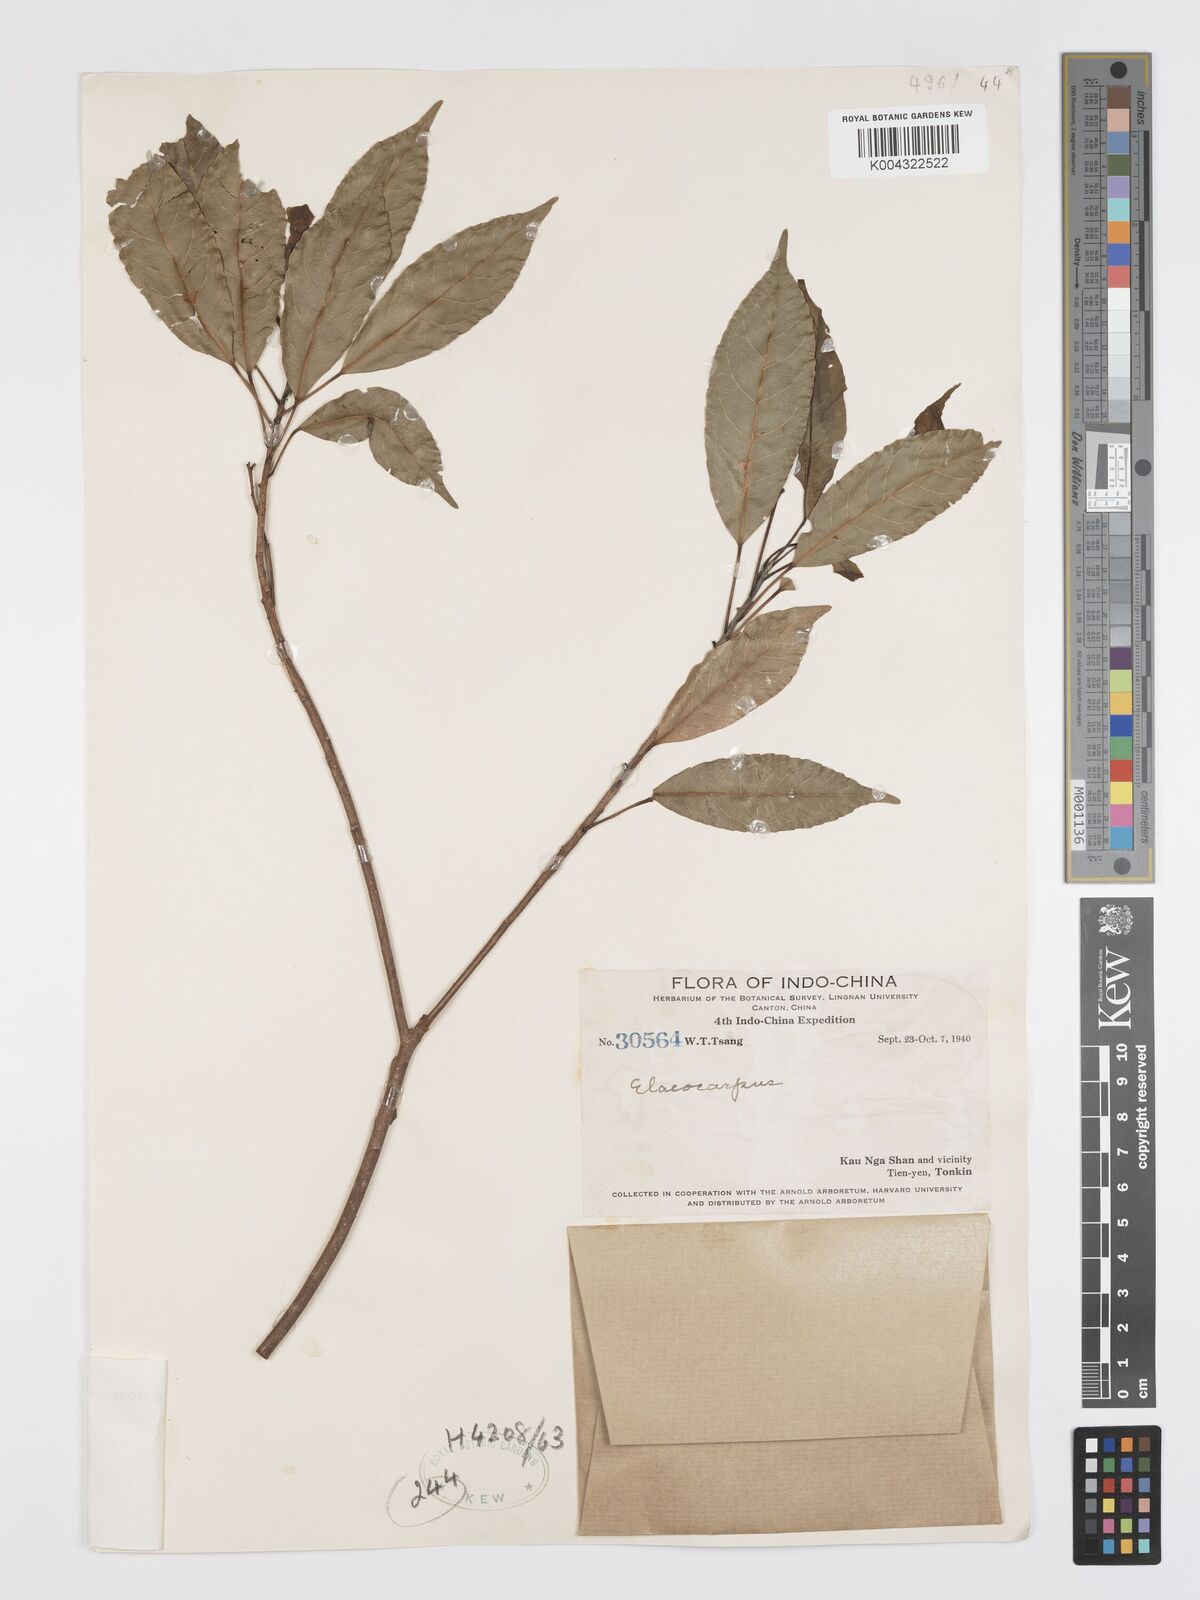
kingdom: Plantae
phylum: Tracheophyta
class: Magnoliopsida
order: Oxalidales
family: Elaeocarpaceae
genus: Elaeocarpus
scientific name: Elaeocarpus dubius
